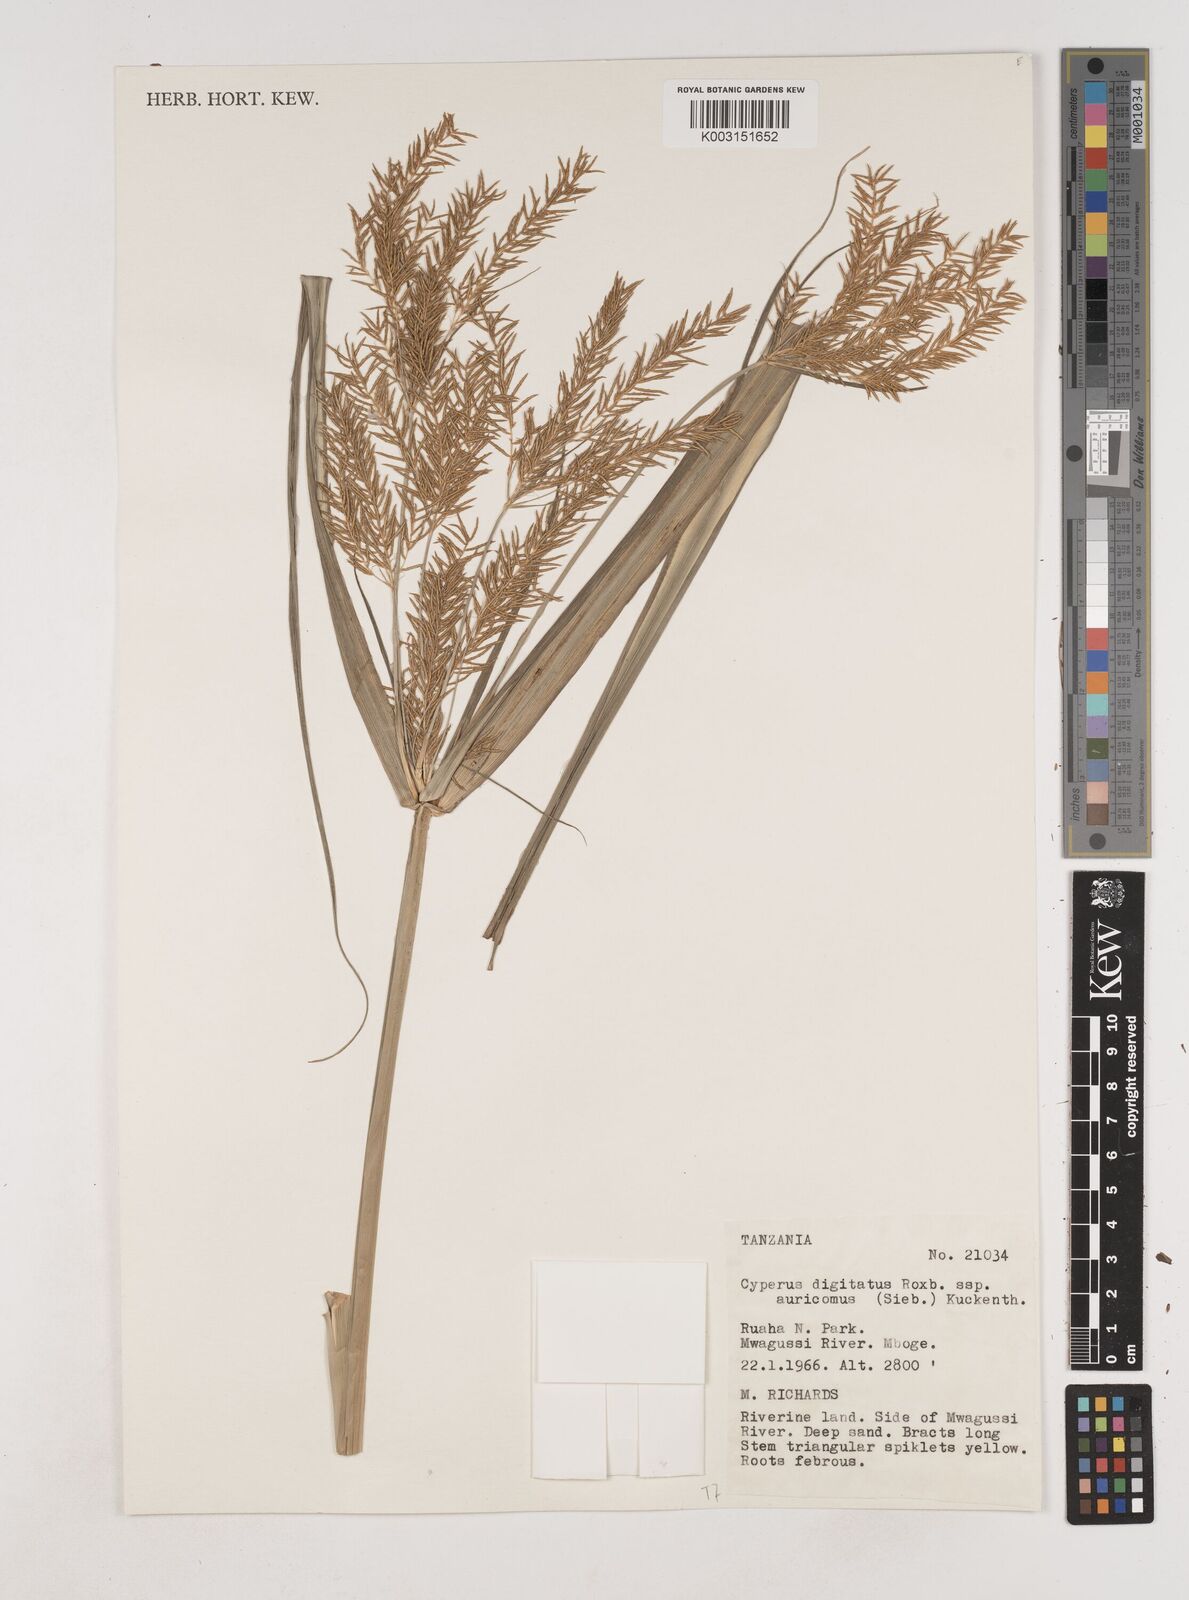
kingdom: Plantae
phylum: Tracheophyta
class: Liliopsida
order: Poales
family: Cyperaceae
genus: Cyperus
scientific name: Cyperus digitatus
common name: Finger flatsedge
